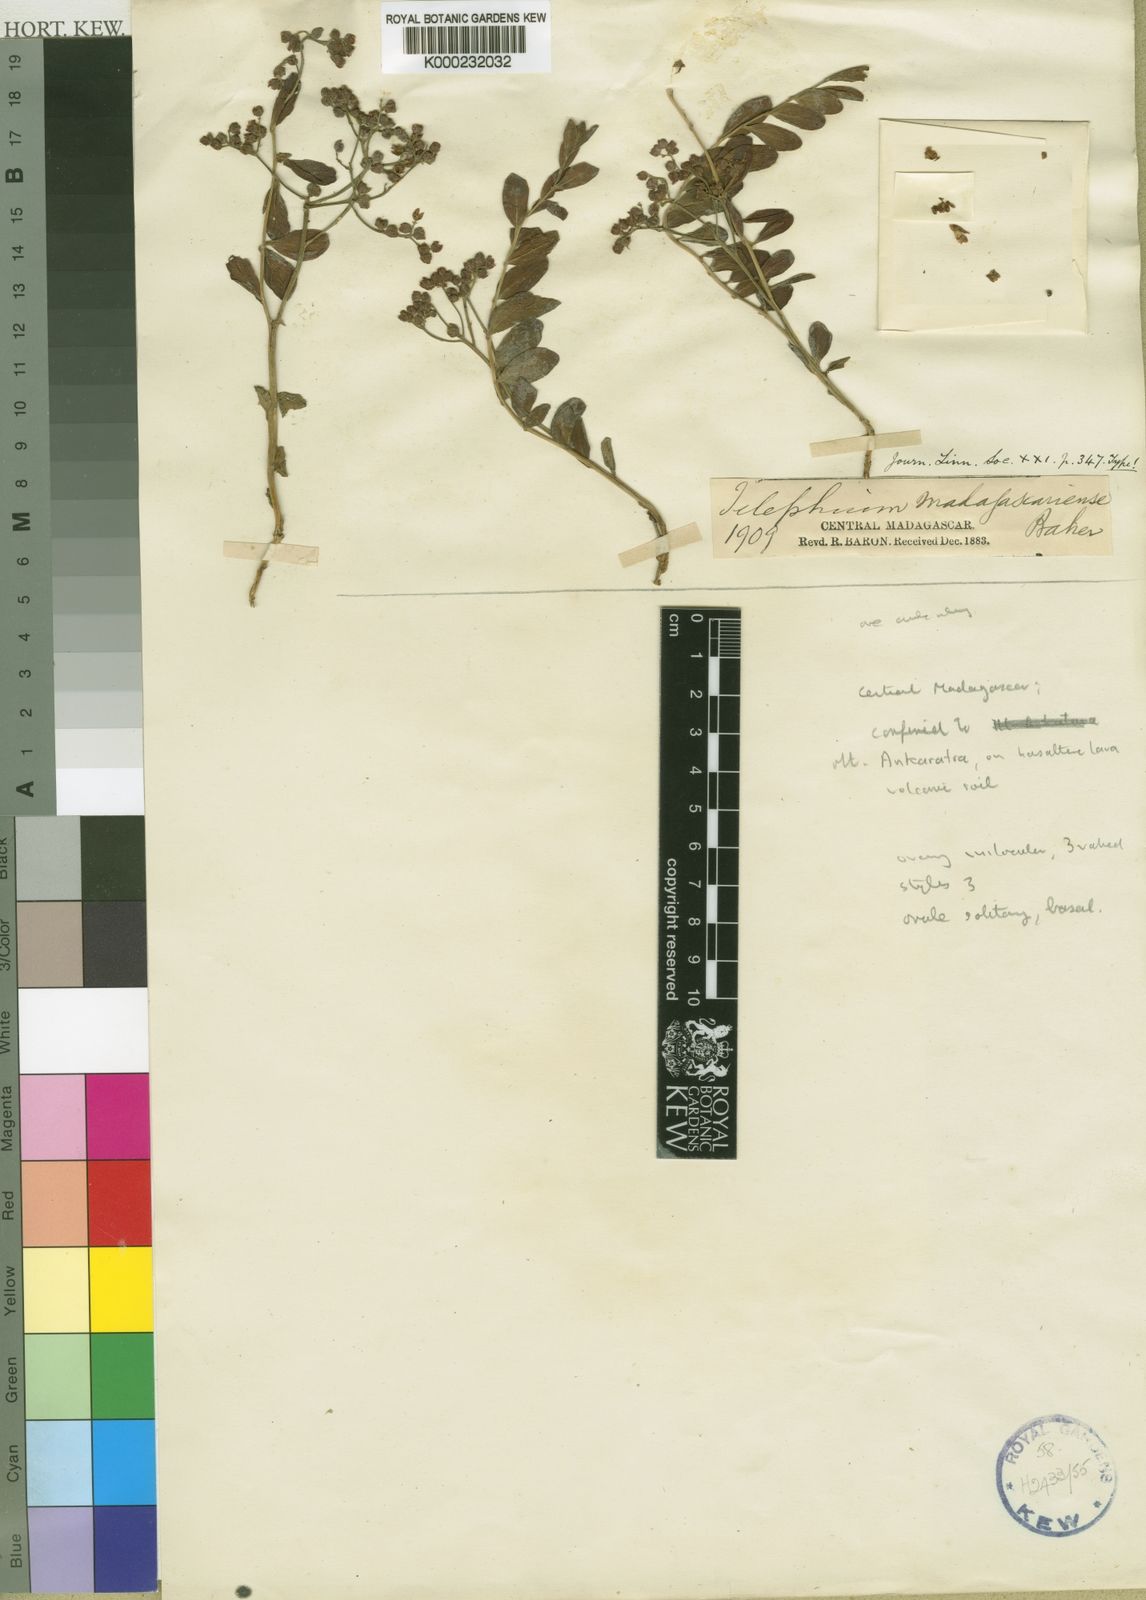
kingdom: Plantae
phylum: Tracheophyta
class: Magnoliopsida
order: Caryophyllales
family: Caryophyllaceae
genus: Corrigiola
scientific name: Corrigiola madagascariensis
